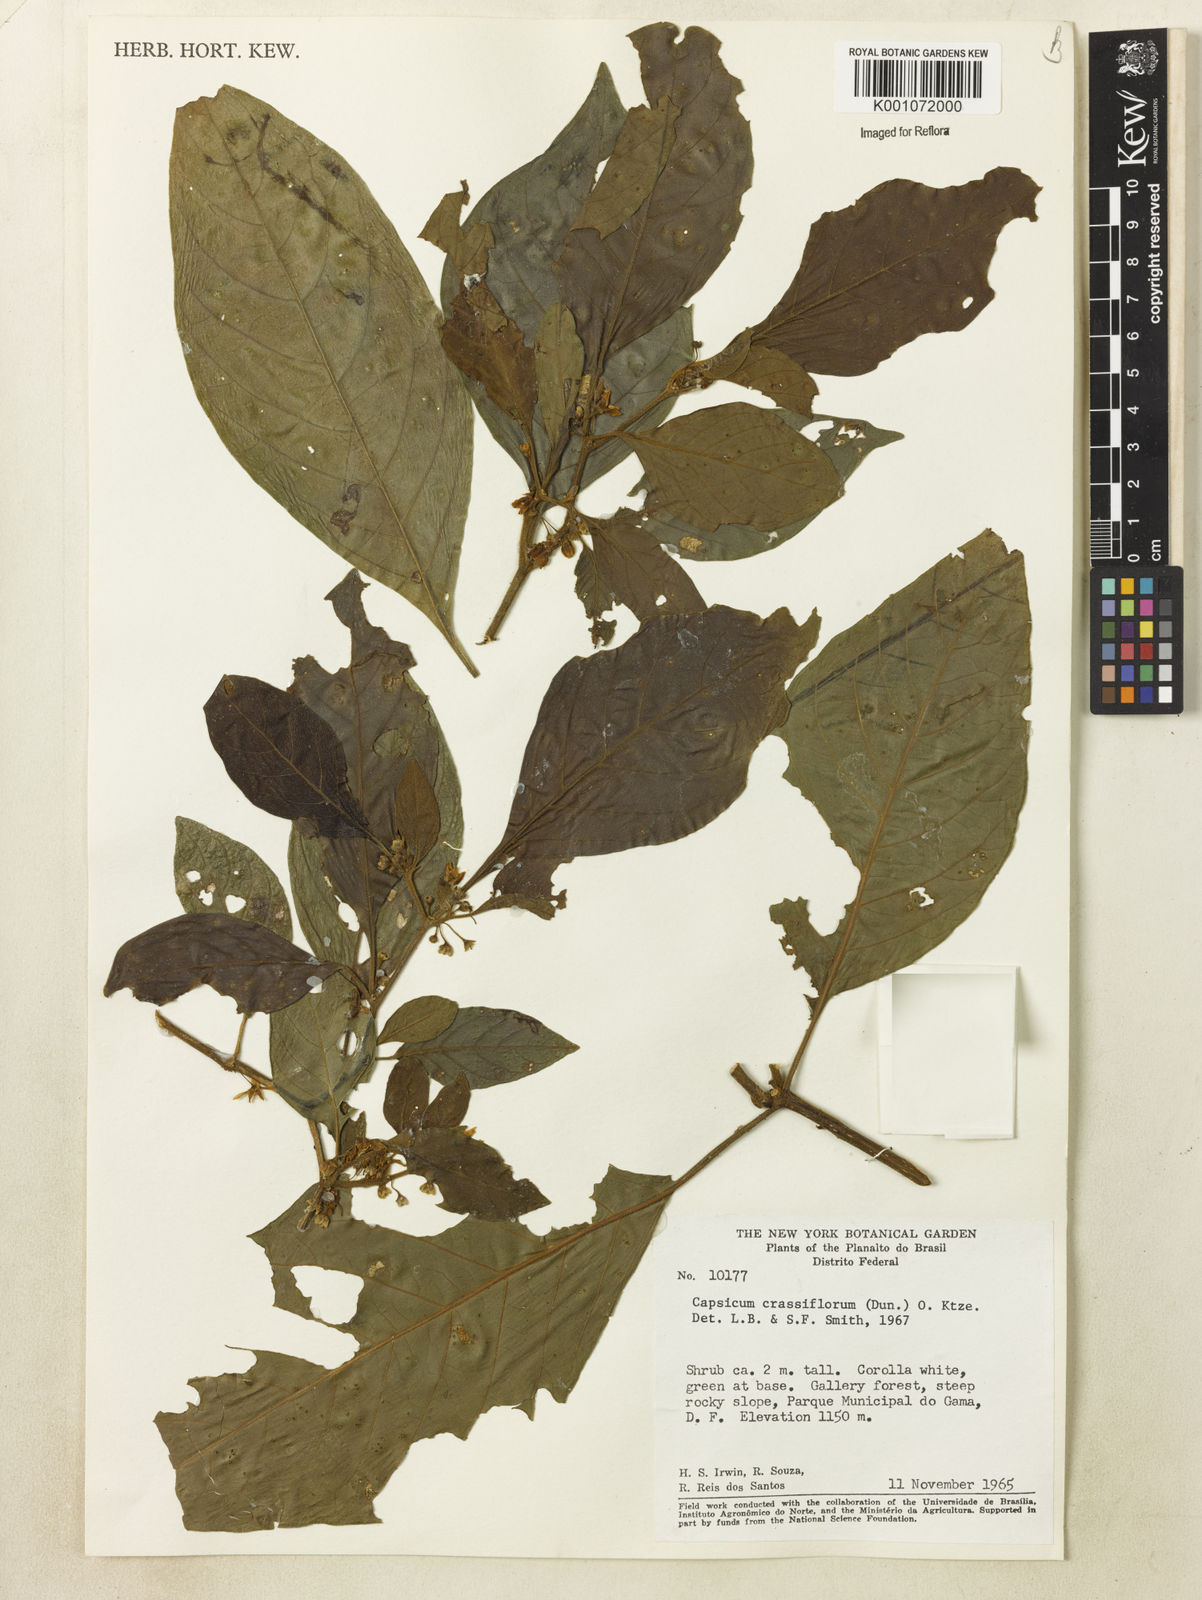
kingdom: Plantae
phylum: Tracheophyta
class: Magnoliopsida
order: Solanales
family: Solanaceae
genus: Athenaea
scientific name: Athenaea
